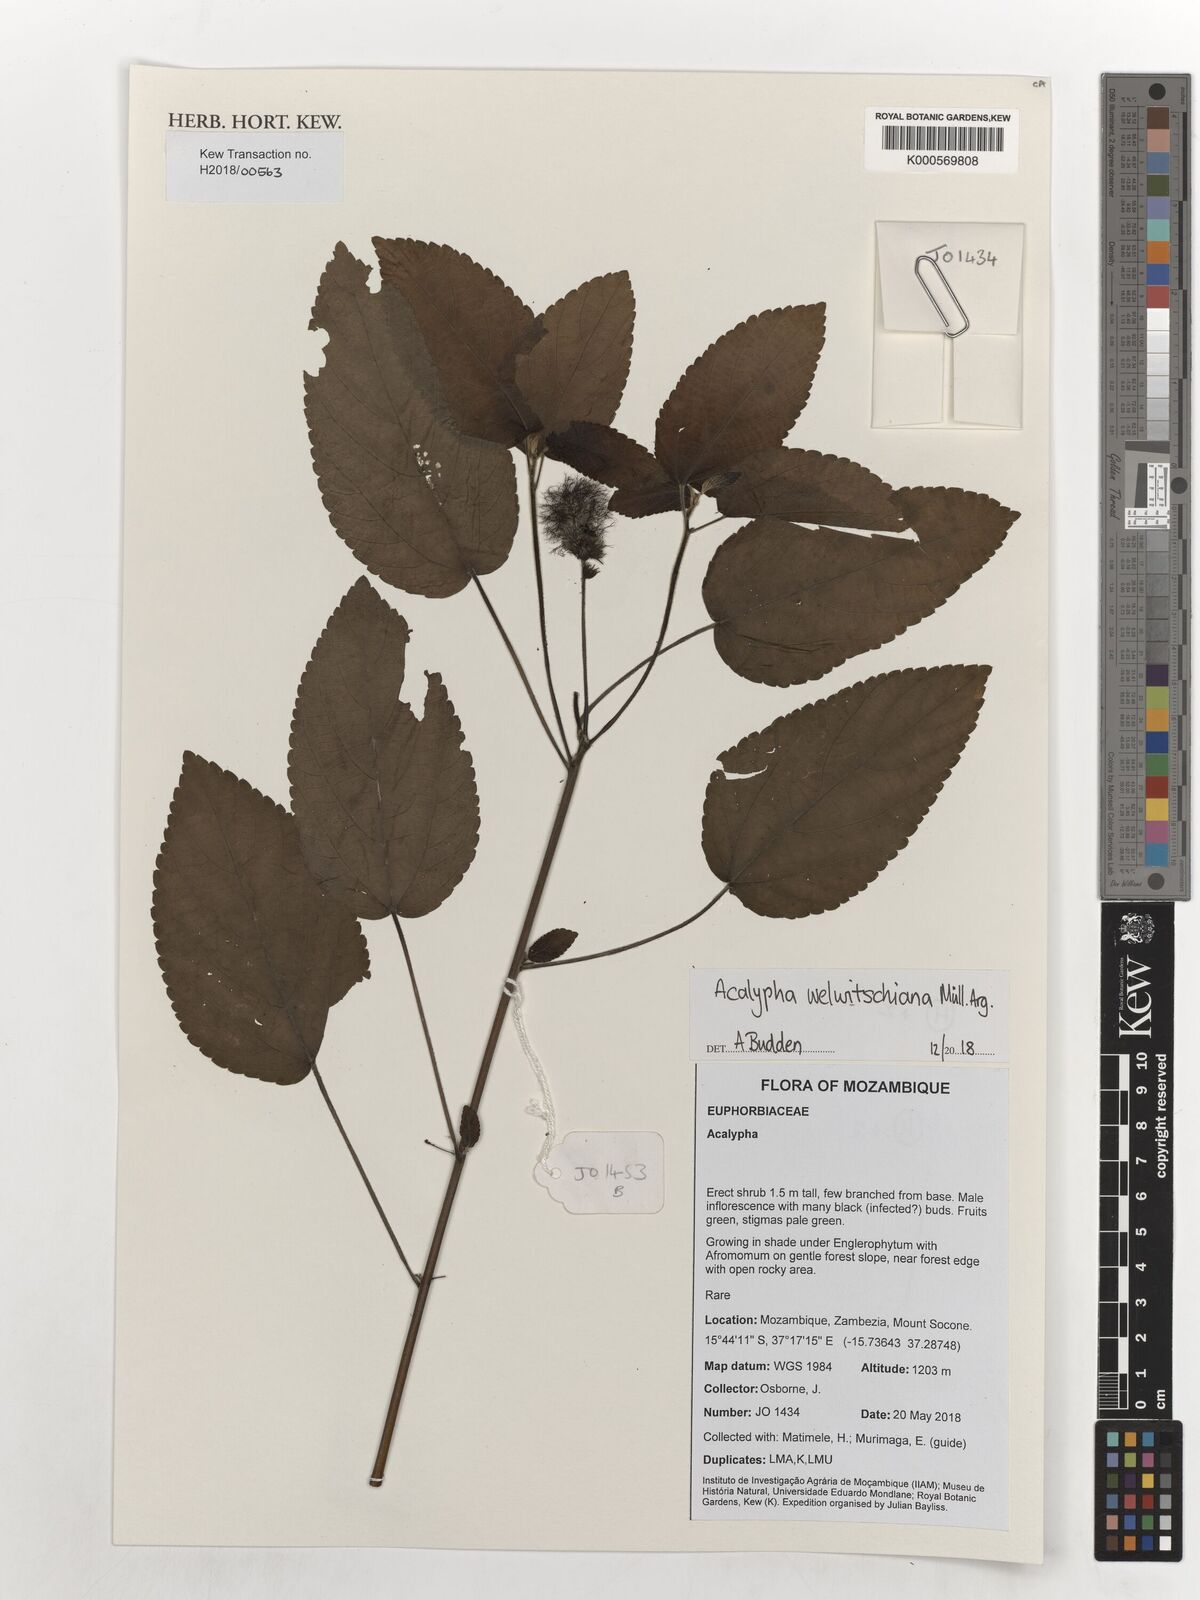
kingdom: Plantae
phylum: Tracheophyta
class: Magnoliopsida
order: Malpighiales
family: Euphorbiaceae
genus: Acalypha
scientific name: Acalypha welwitschiana
